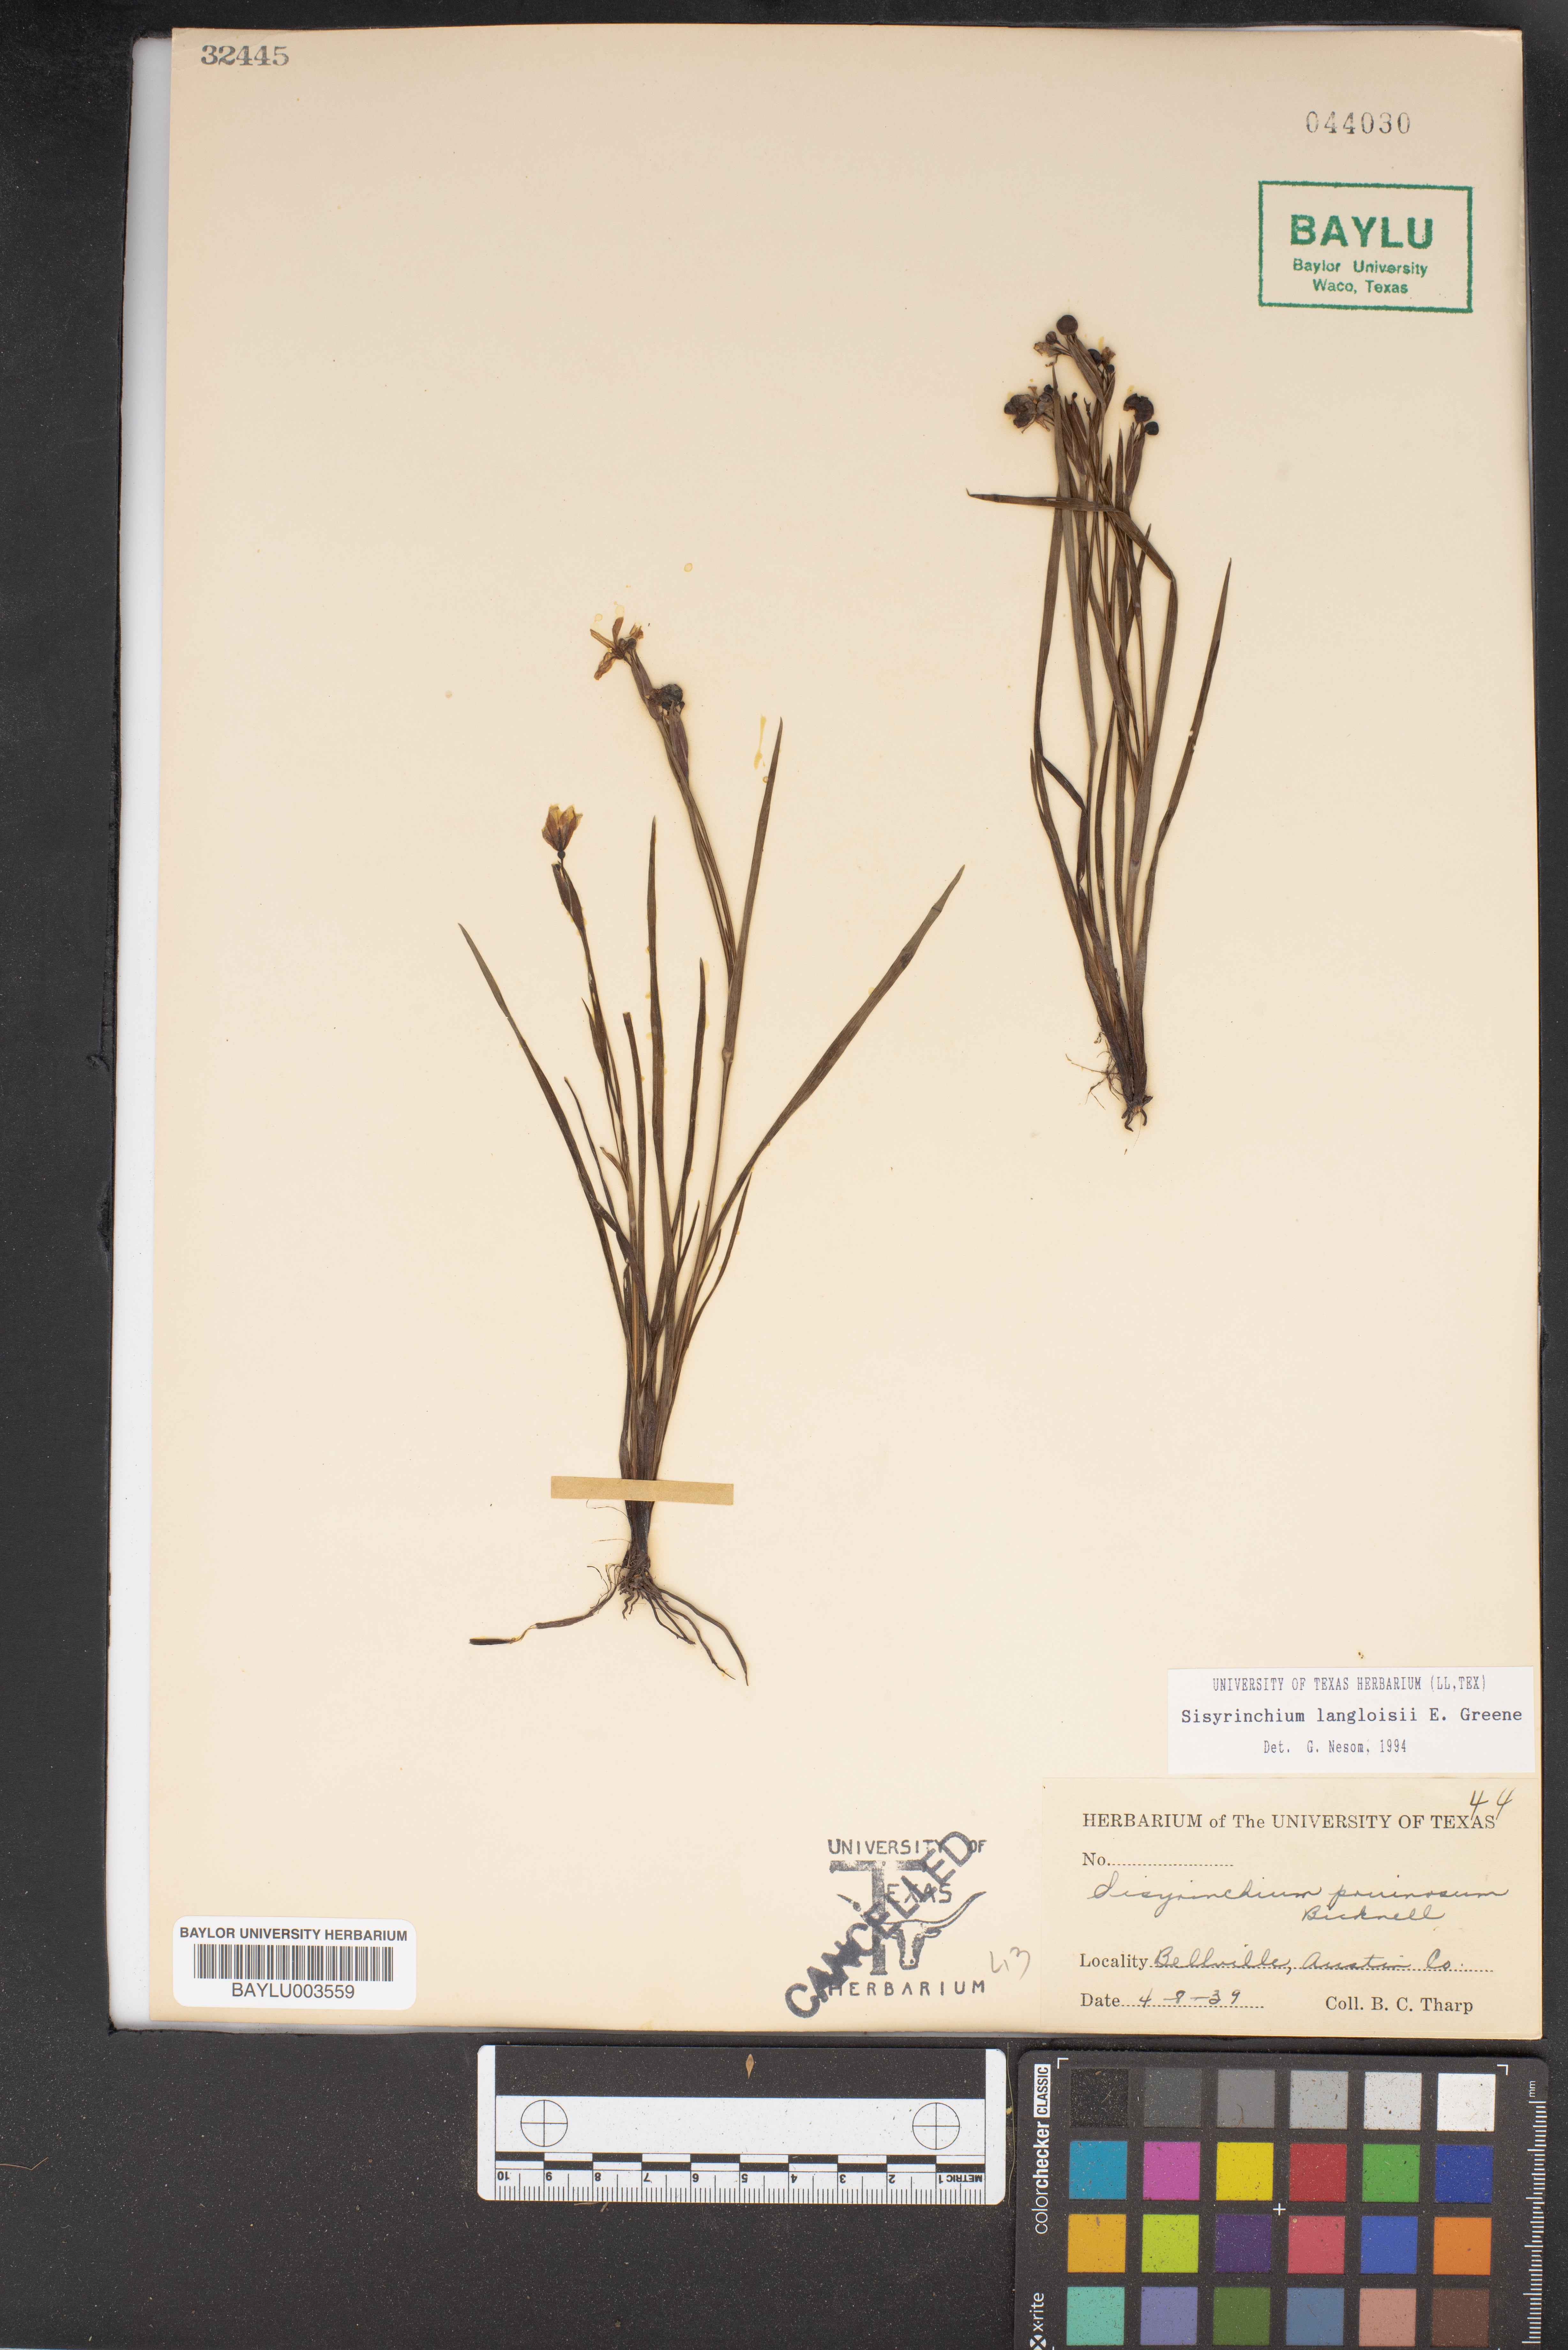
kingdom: Plantae
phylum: Tracheophyta
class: Liliopsida
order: Asparagales
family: Iridaceae
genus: Sisyrinchium
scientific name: Sisyrinchium pruinosum
